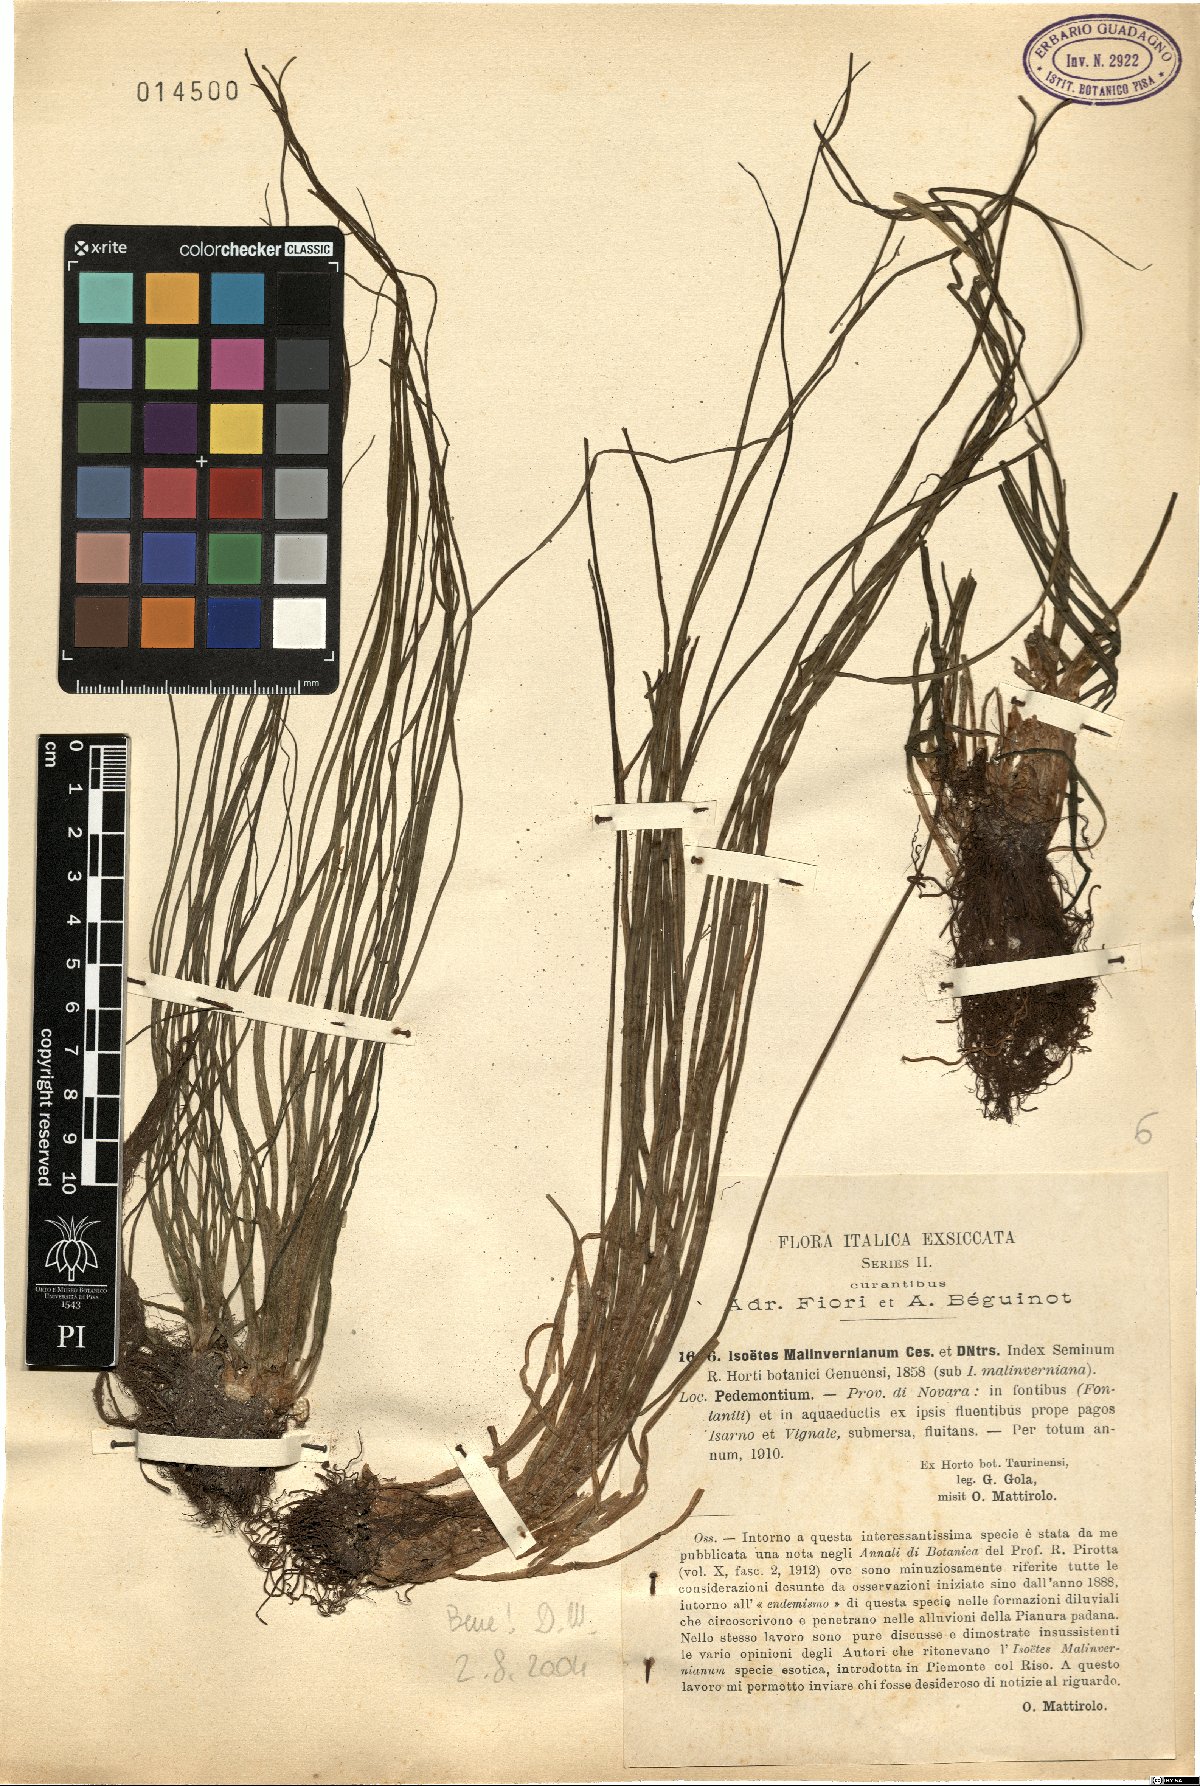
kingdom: Plantae
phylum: Tracheophyta
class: Lycopodiopsida
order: Isoetales
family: Isoetaceae
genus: Isoetes
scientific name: Isoetes malinverniana
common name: Piedmont quillwort
